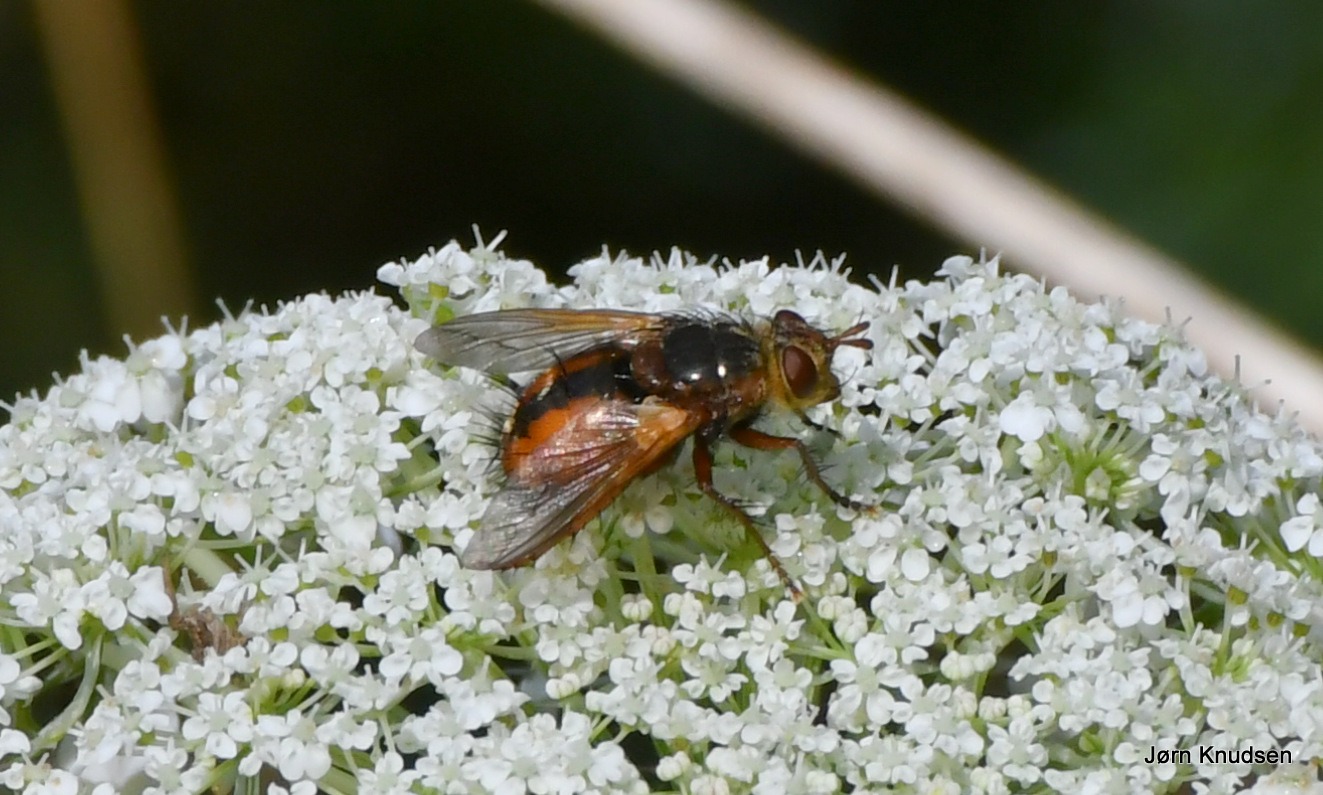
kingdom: Animalia
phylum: Arthropoda
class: Insecta
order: Diptera
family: Tachinidae
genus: Tachina
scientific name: Tachina fera
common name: Mellemfluen oskar
